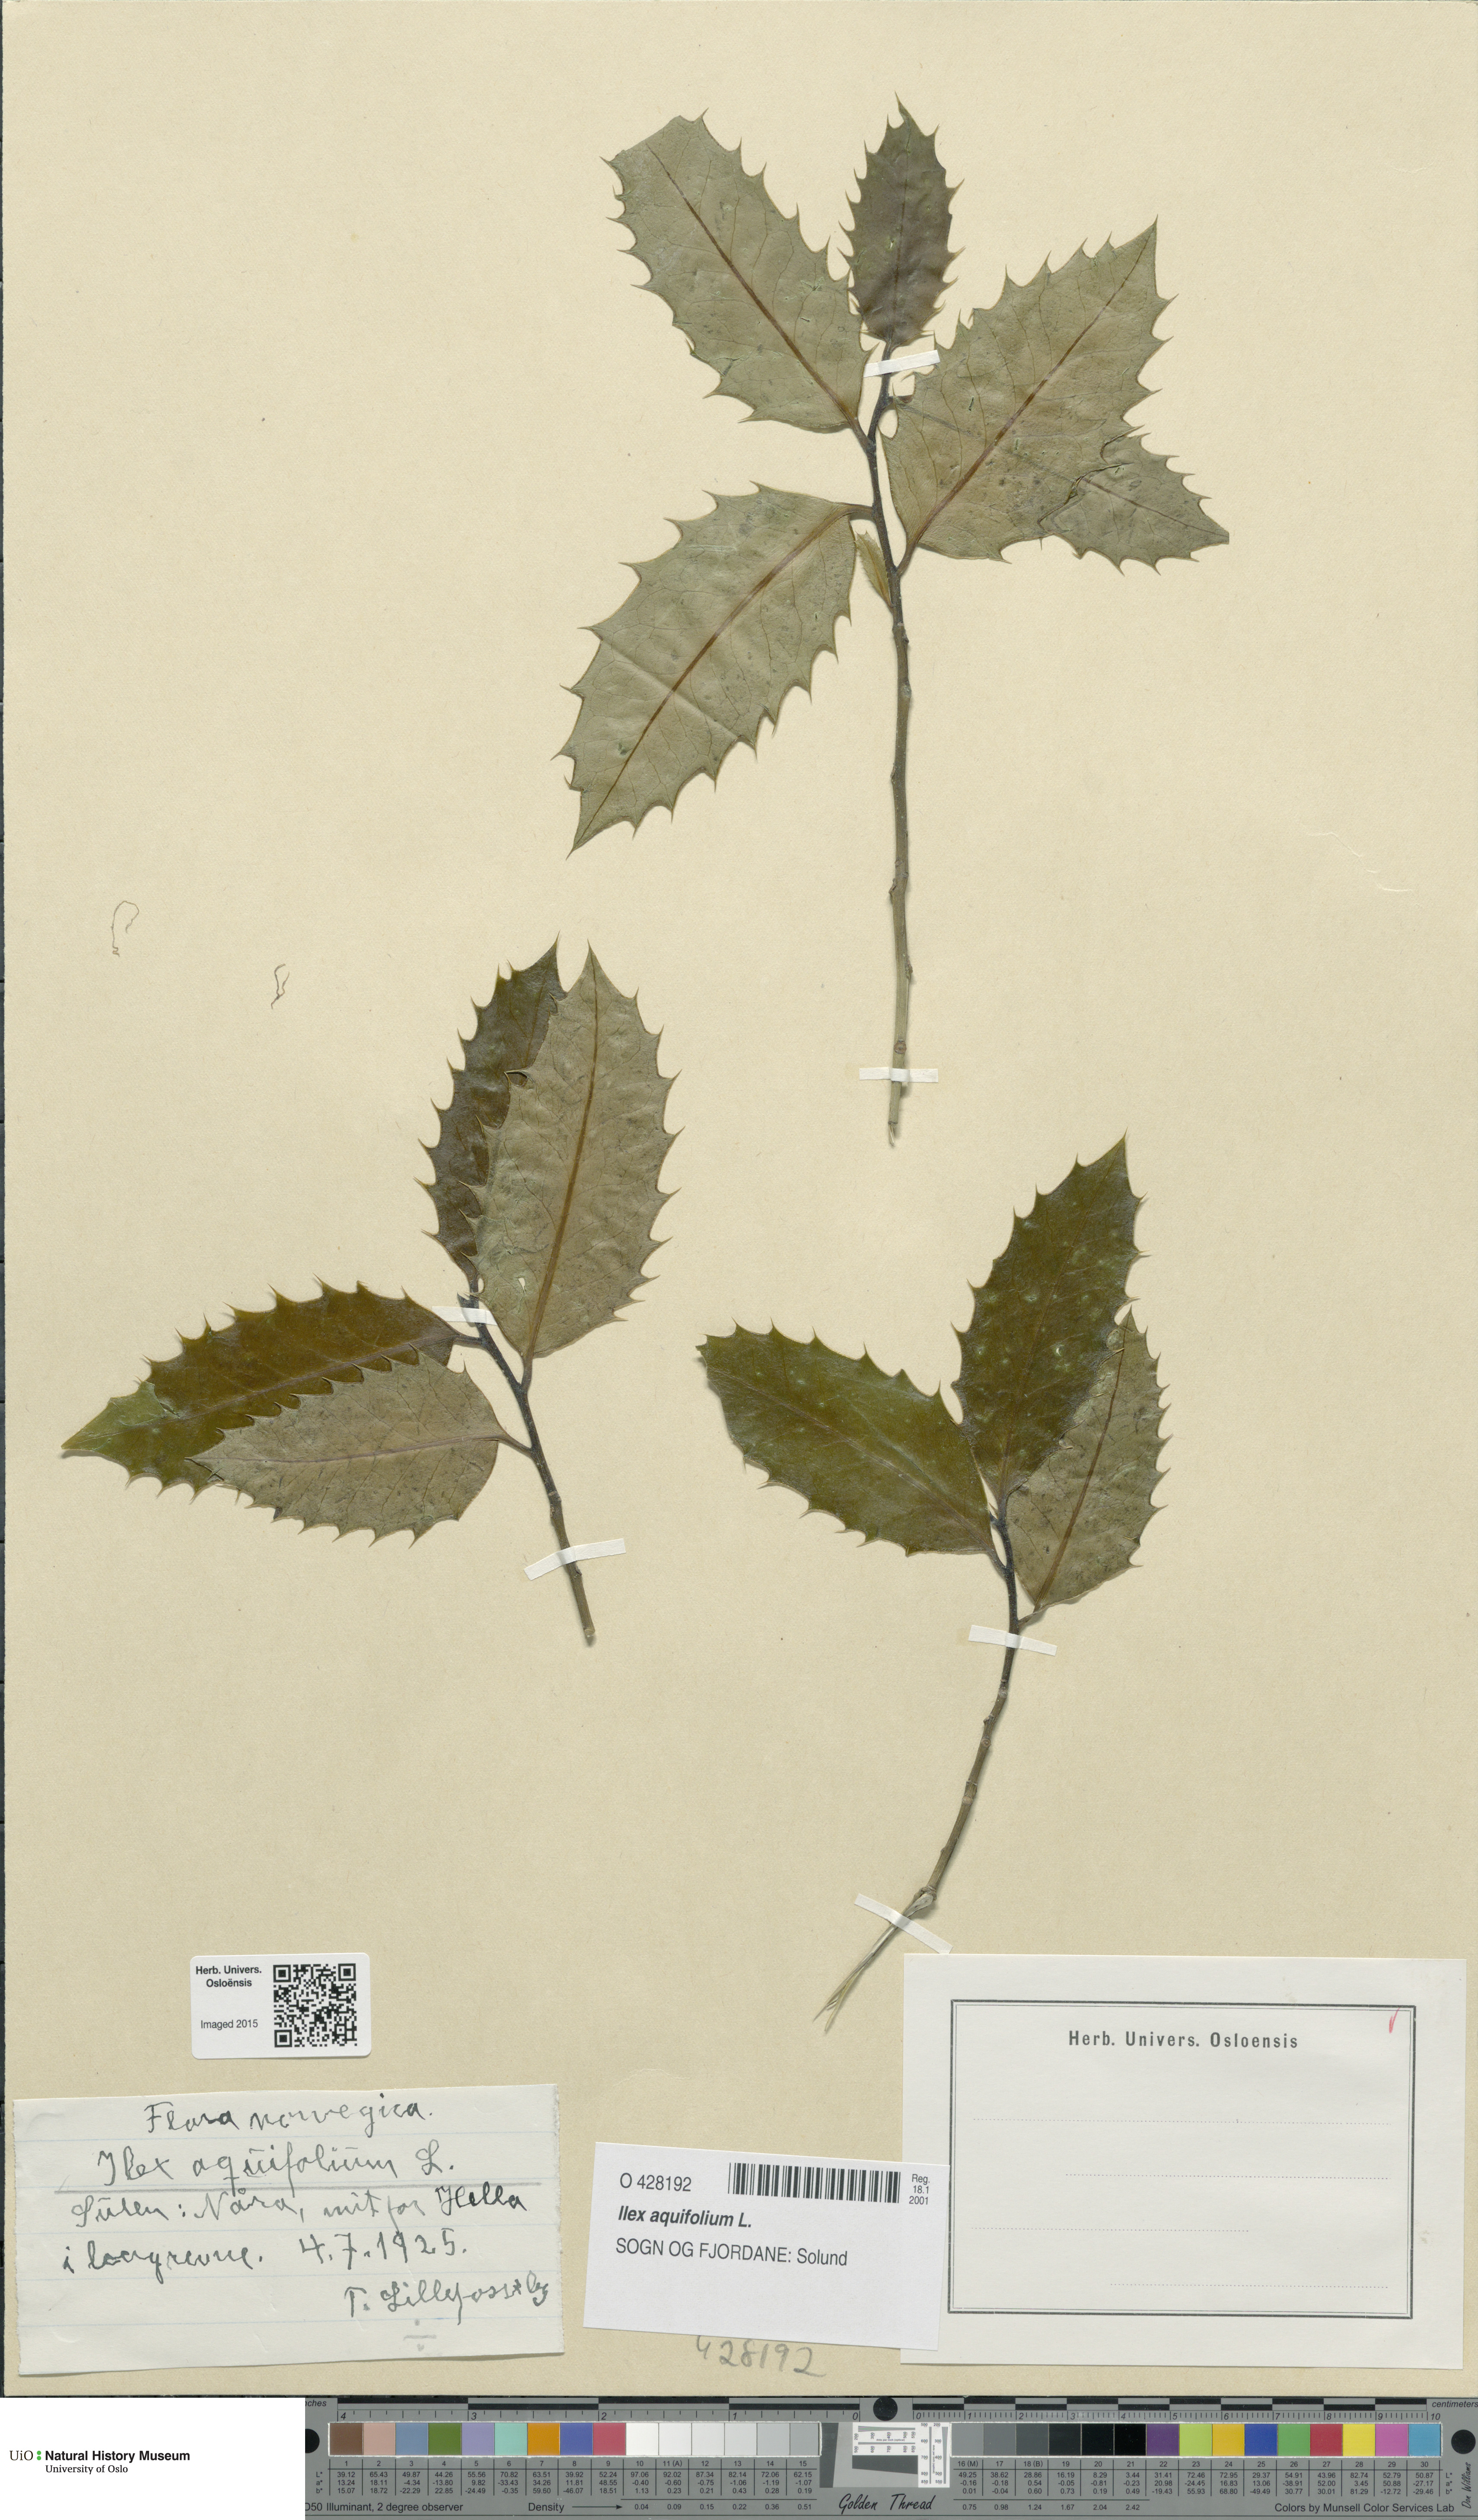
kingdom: Plantae
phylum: Tracheophyta
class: Magnoliopsida
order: Aquifoliales
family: Aquifoliaceae
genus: Ilex
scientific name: Ilex aquifolium
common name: English holly
